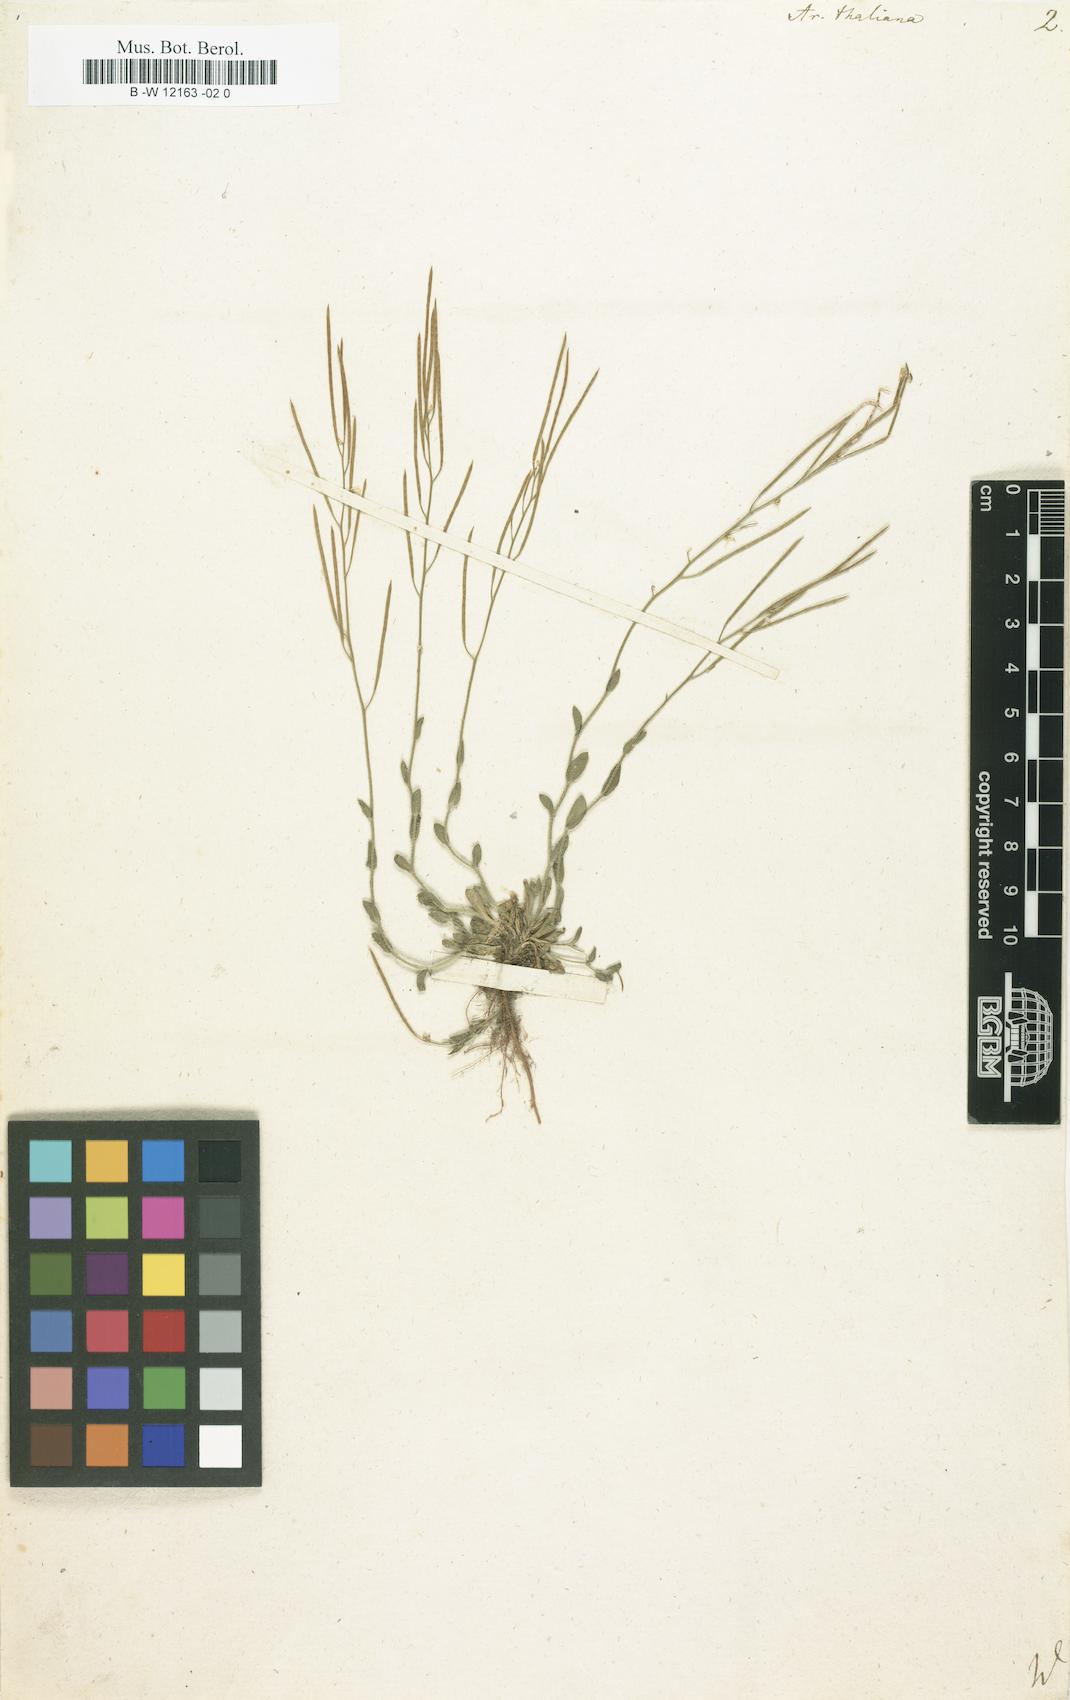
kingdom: Plantae
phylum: Tracheophyta
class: Magnoliopsida
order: Brassicales
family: Brassicaceae
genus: Arabidopsis
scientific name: Arabidopsis
